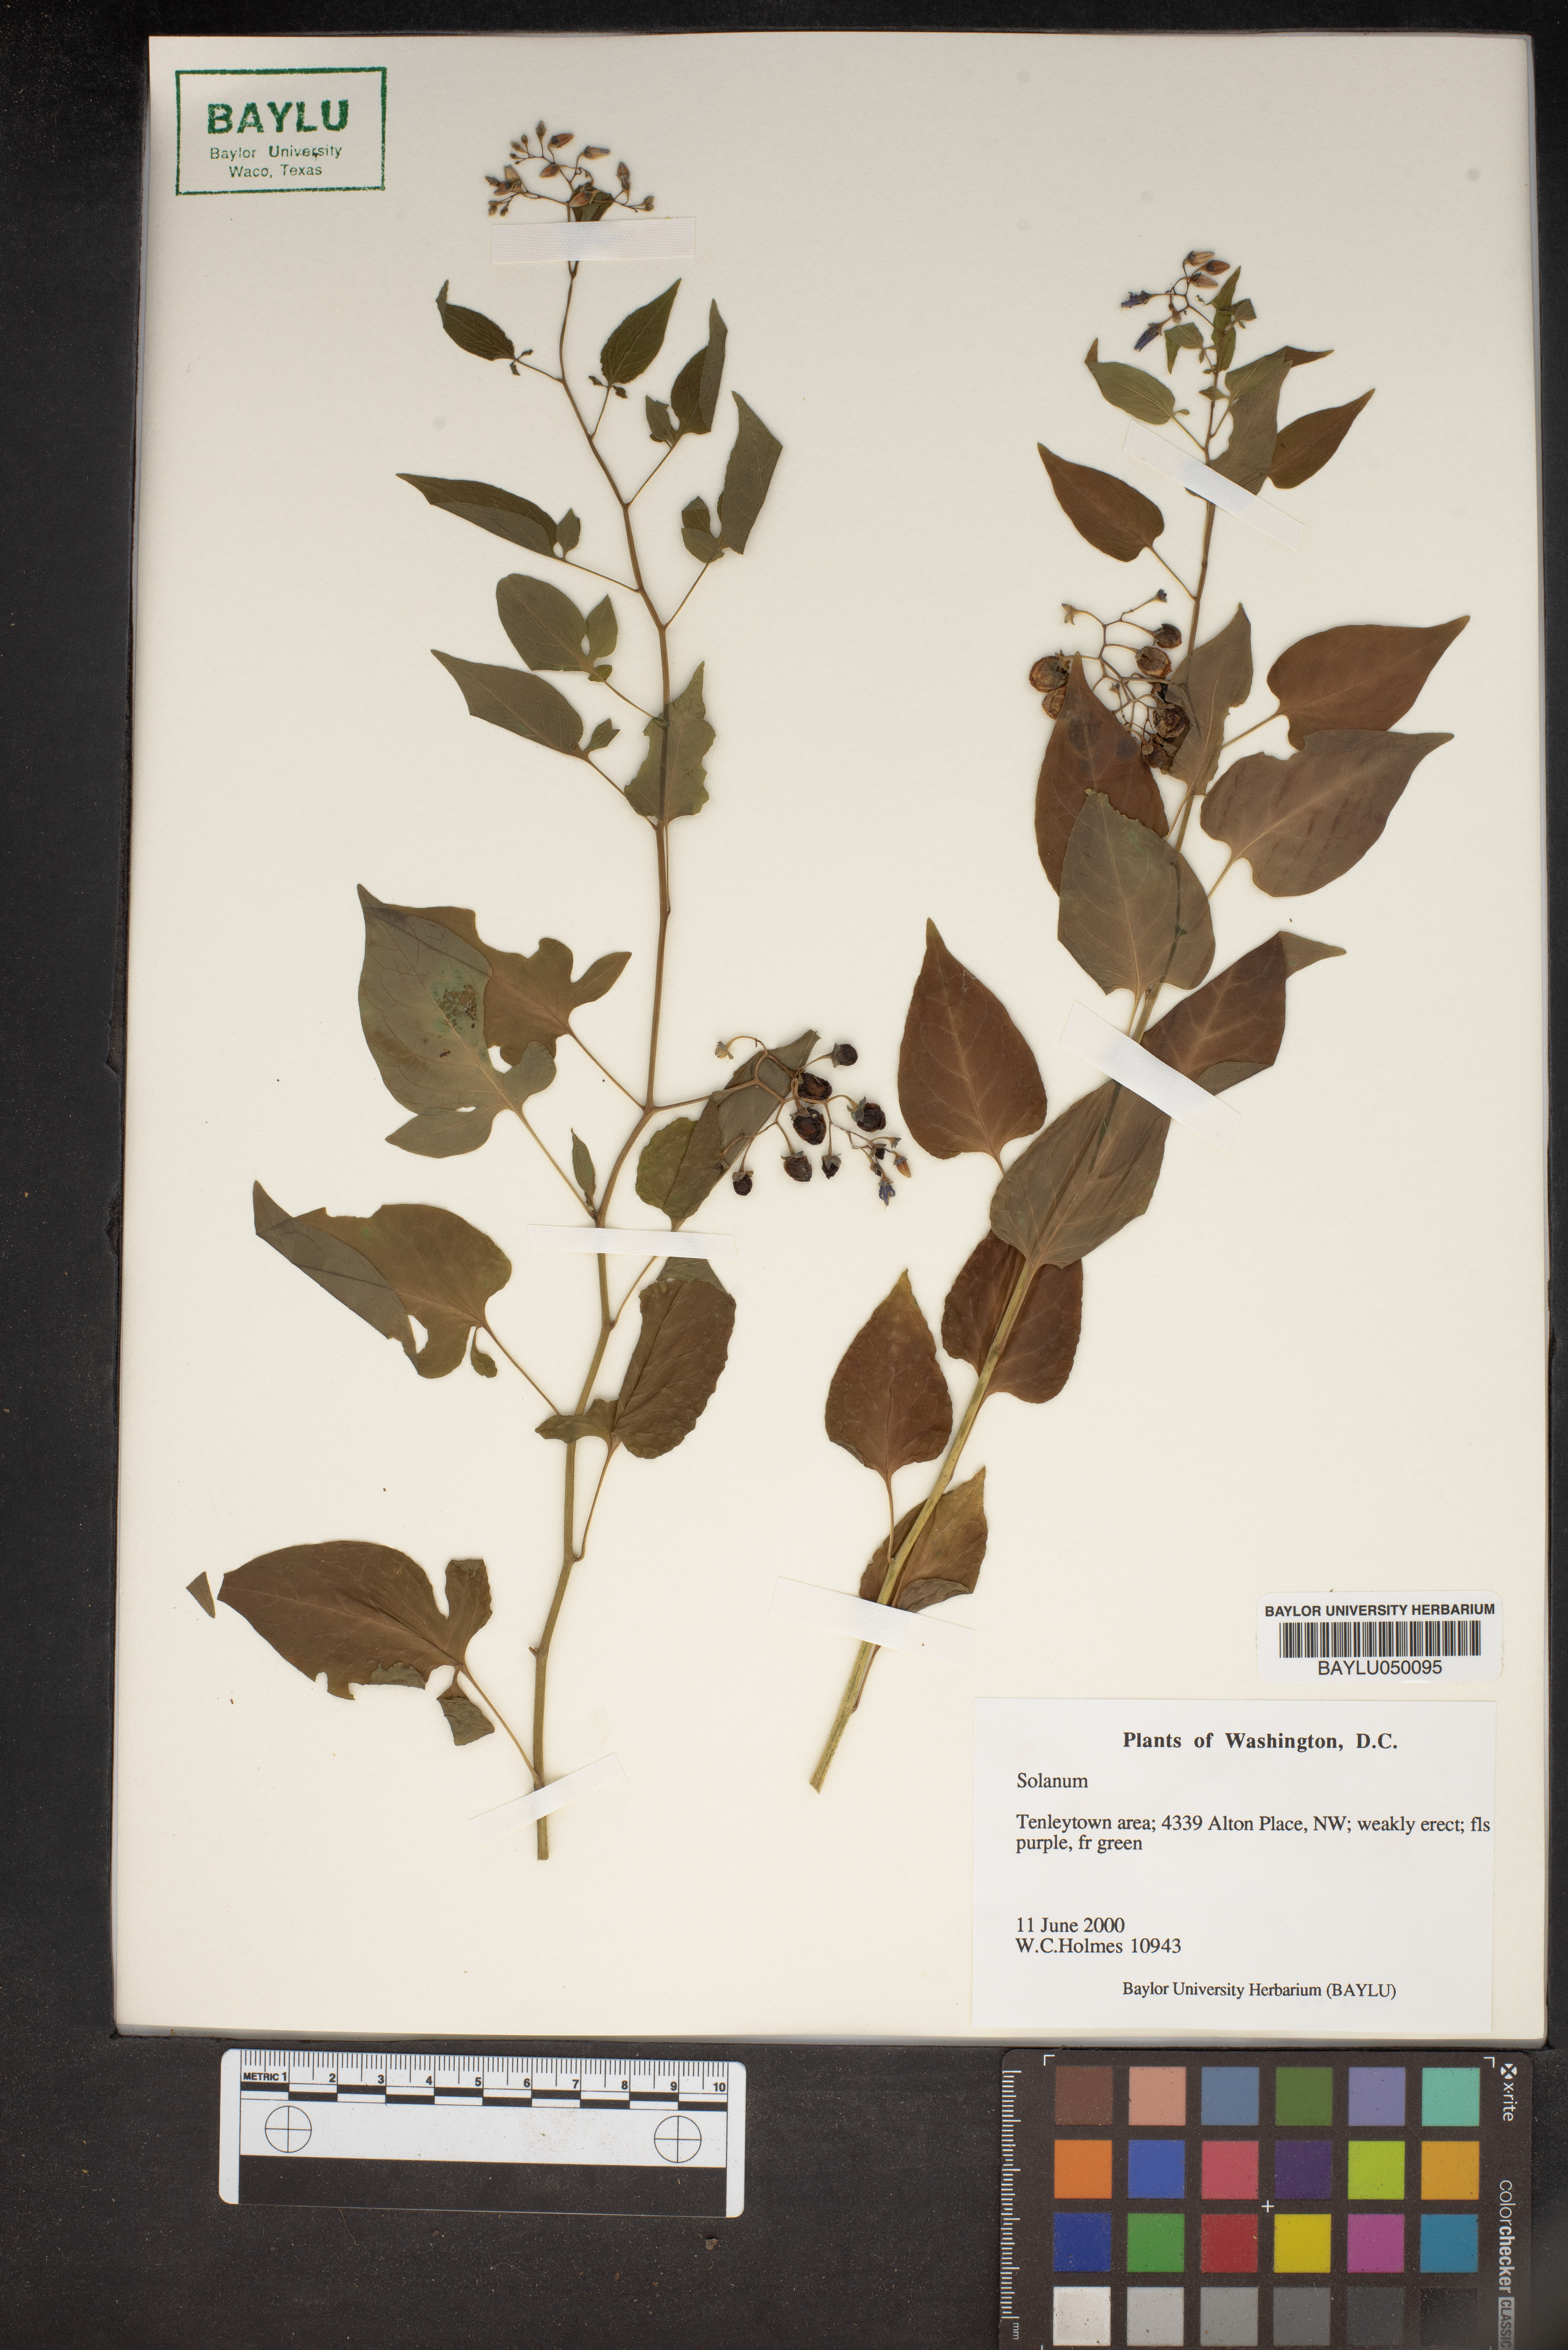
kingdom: Plantae
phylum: Tracheophyta
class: Magnoliopsida
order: Solanales
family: Solanaceae
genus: Solanum
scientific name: Solanum
